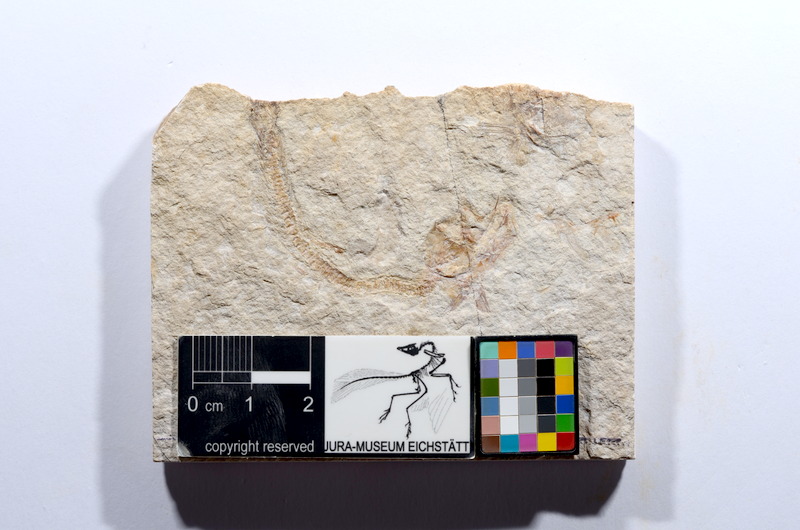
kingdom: Animalia
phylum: Chordata
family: Ascalaboidae
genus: Tharsis
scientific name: Tharsis dubius
